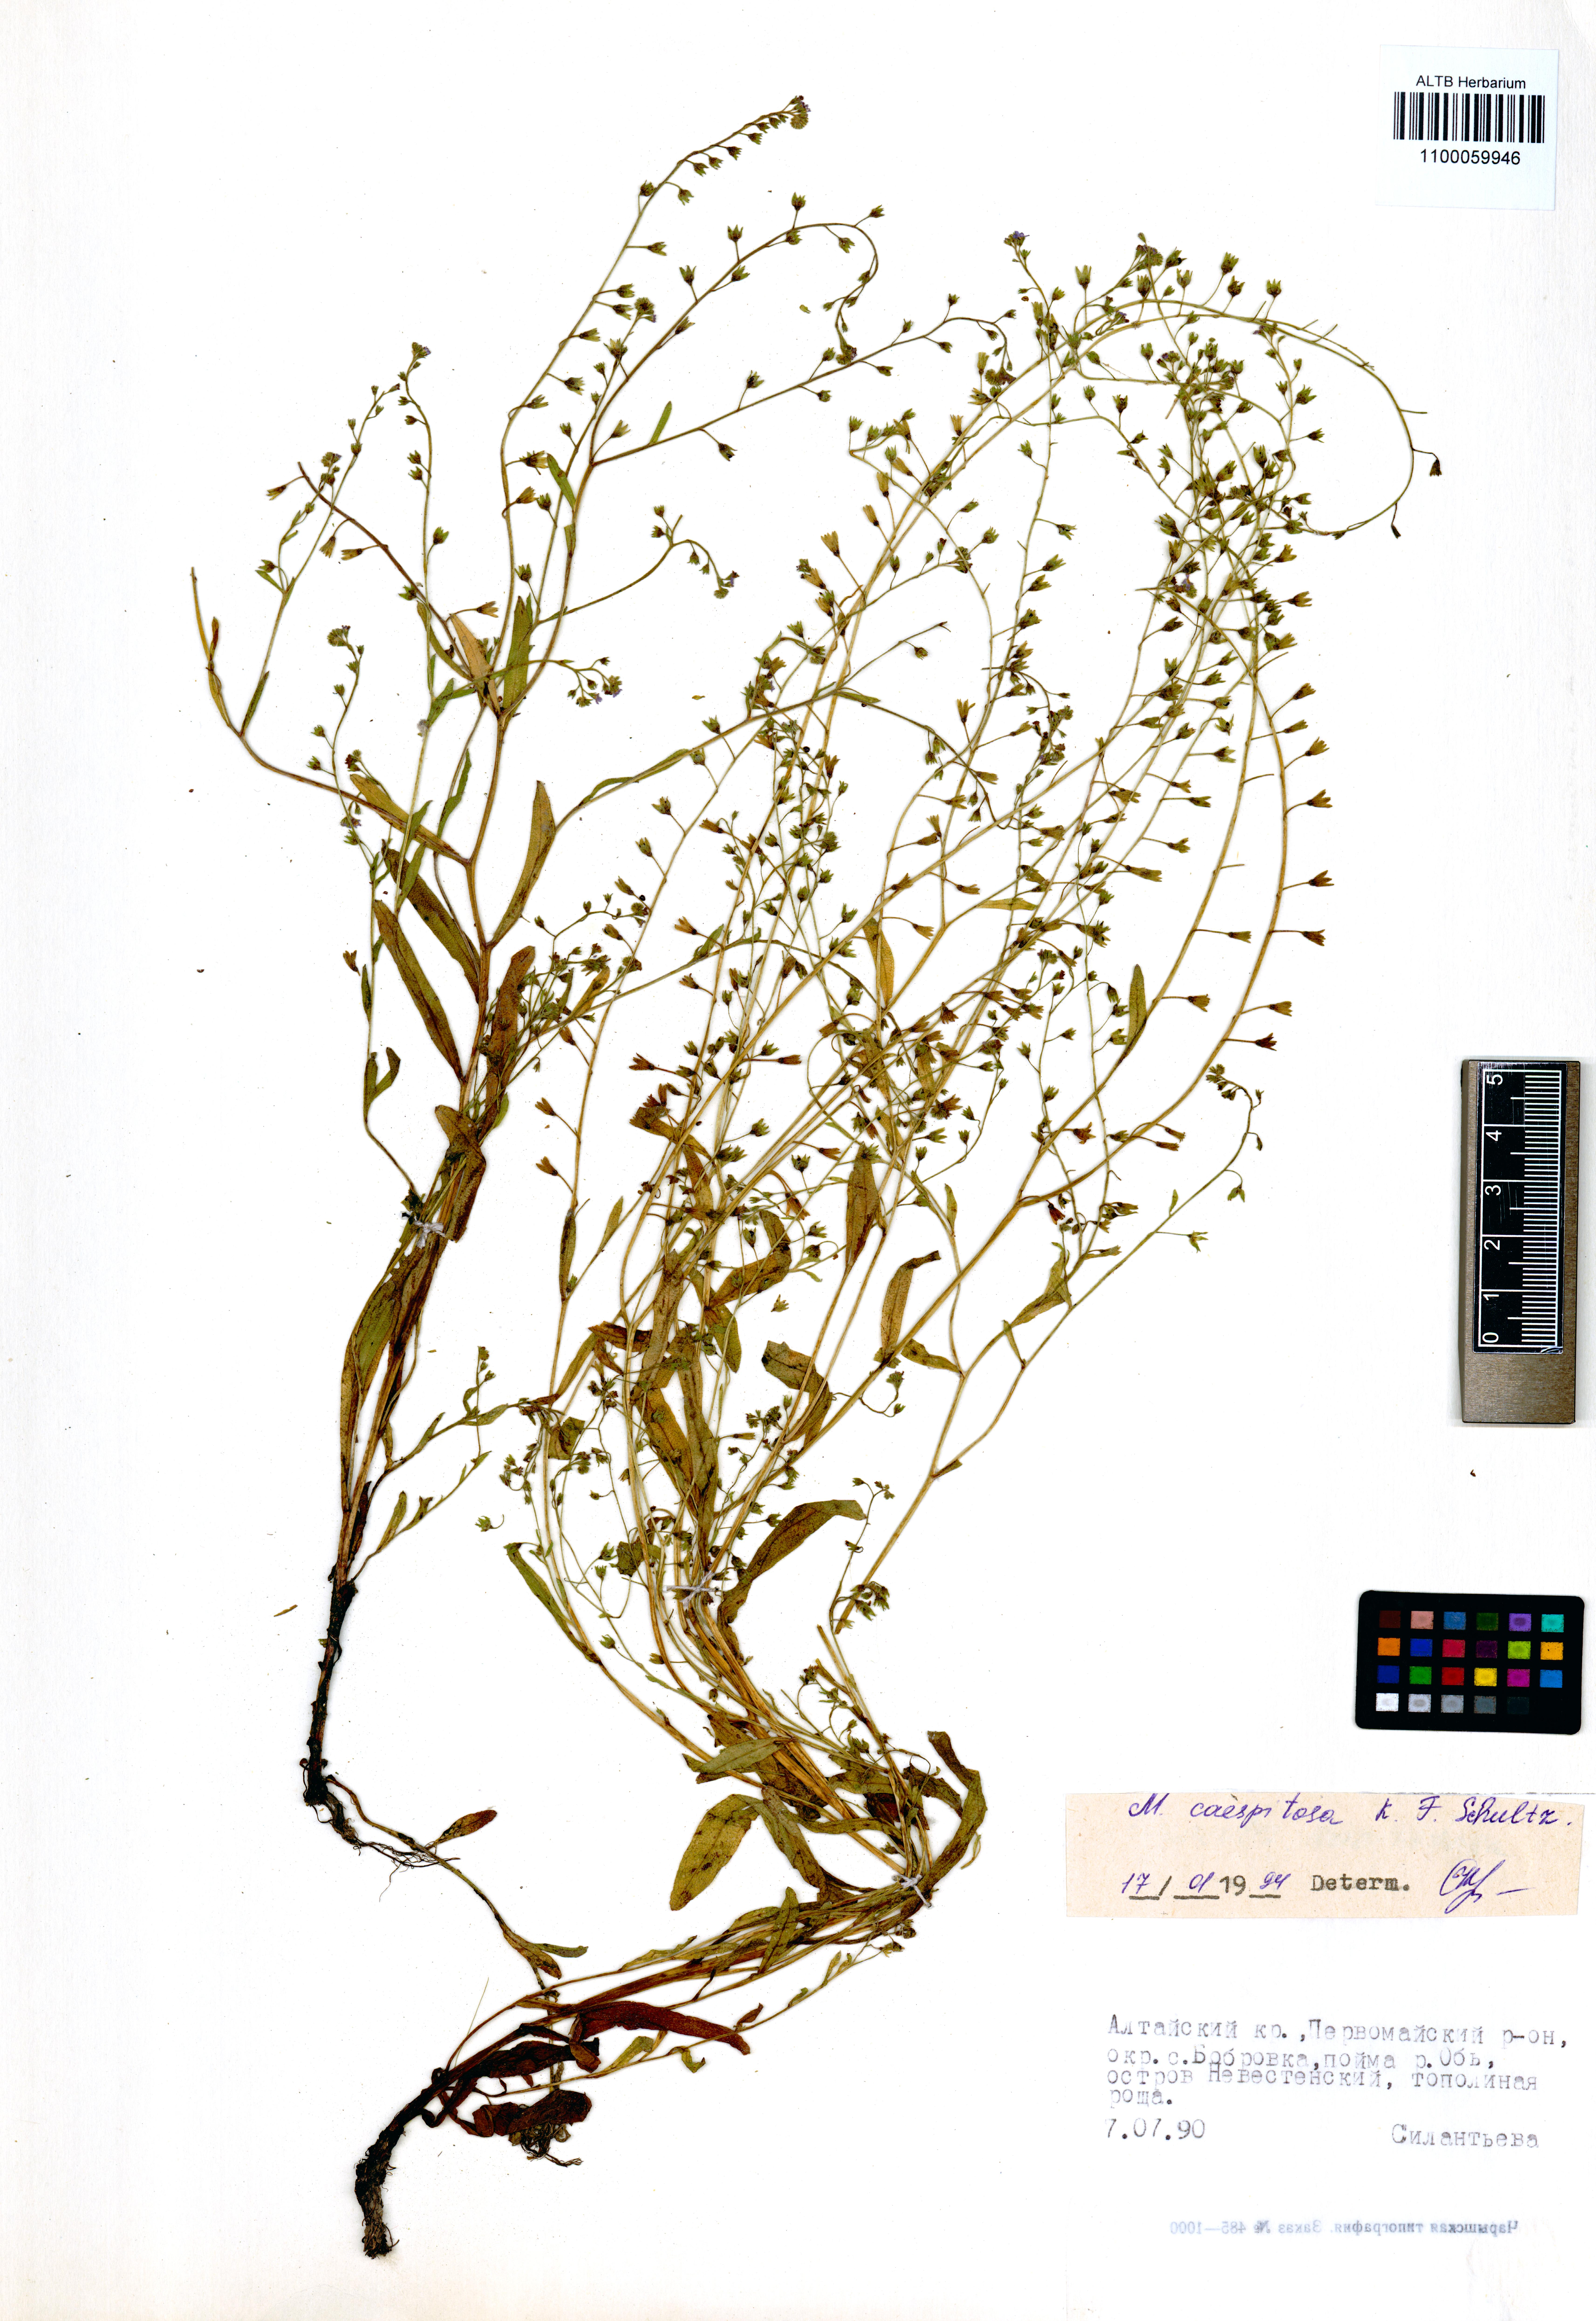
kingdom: Plantae
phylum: Tracheophyta
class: Magnoliopsida
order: Boraginales
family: Boraginaceae
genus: Myosotis
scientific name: Myosotis laxa
